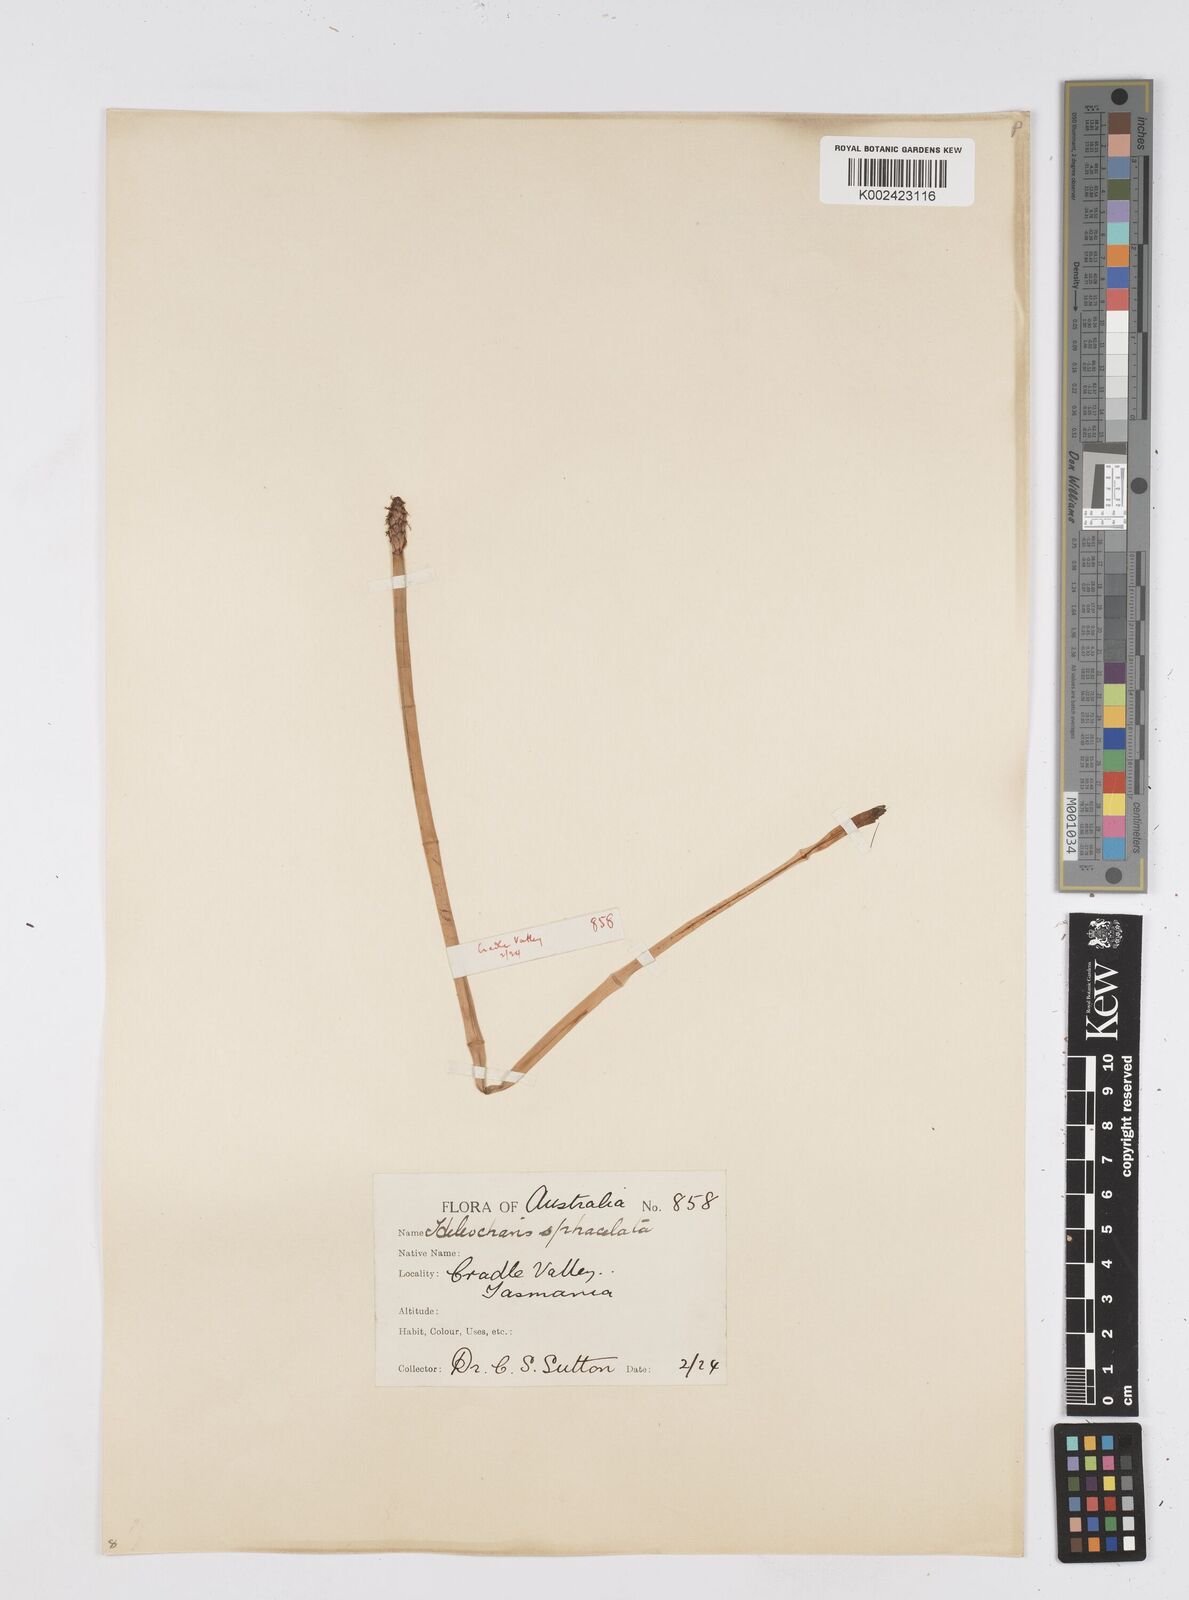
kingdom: Plantae
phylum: Tracheophyta
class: Liliopsida
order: Poales
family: Cyperaceae
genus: Eleocharis
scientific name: Eleocharis sphacelata
